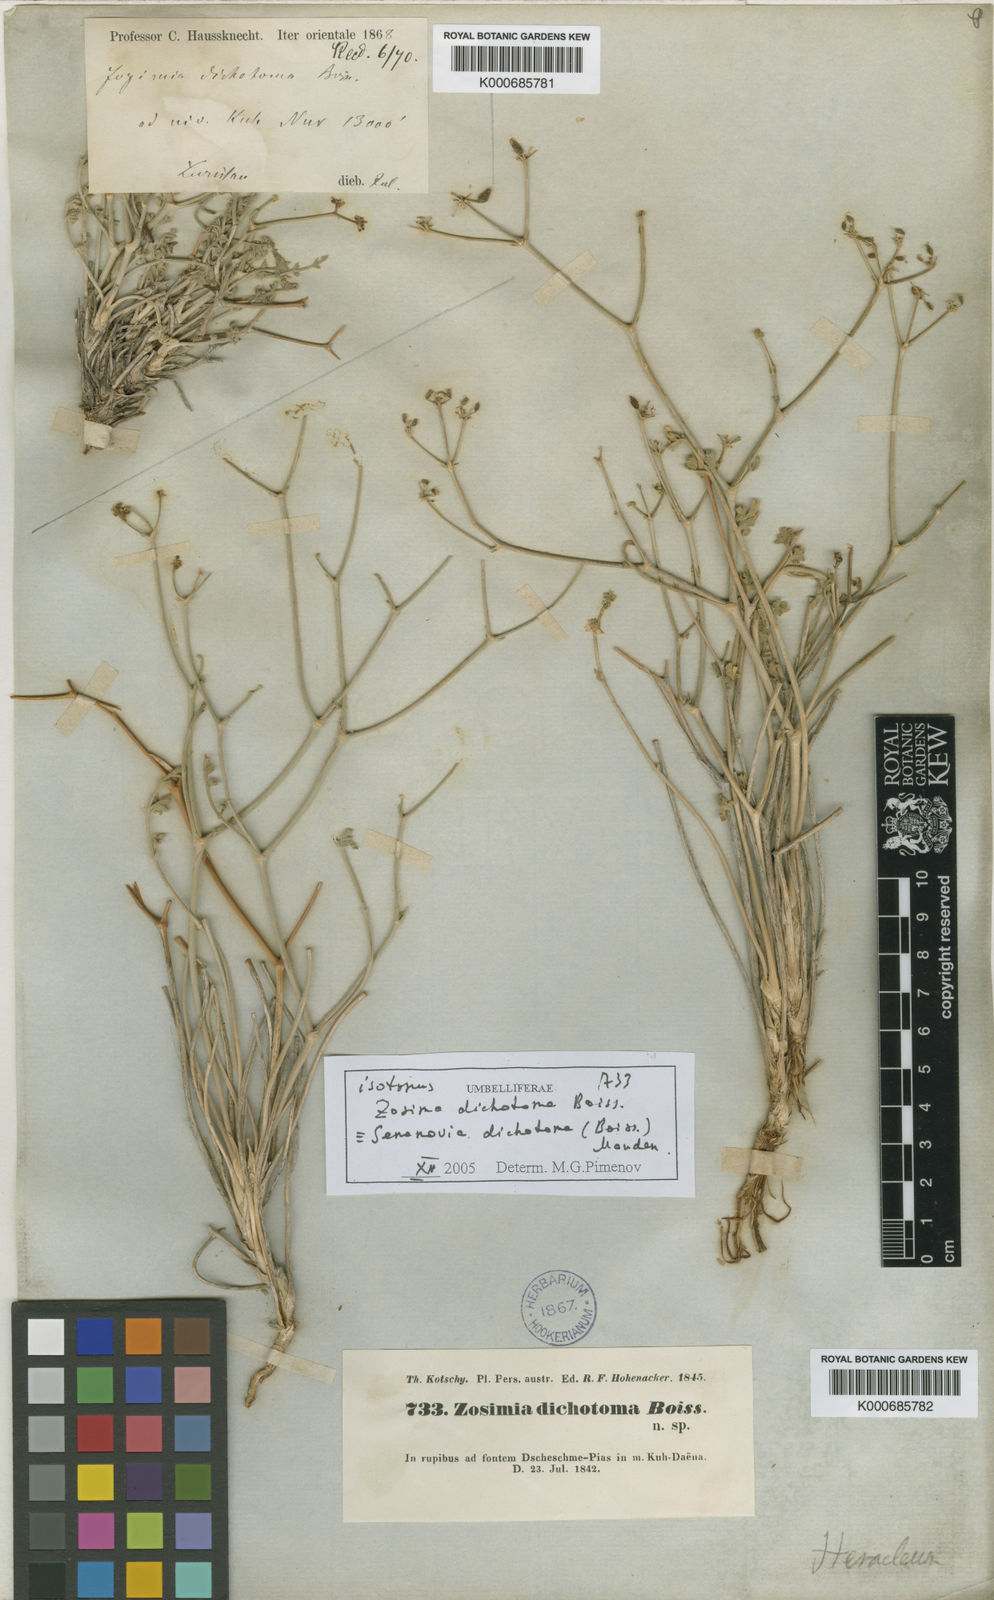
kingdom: Plantae
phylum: Tracheophyta
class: Magnoliopsida
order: Apiales
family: Apiaceae
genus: Semenovia
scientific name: Semenovia dichotoma
